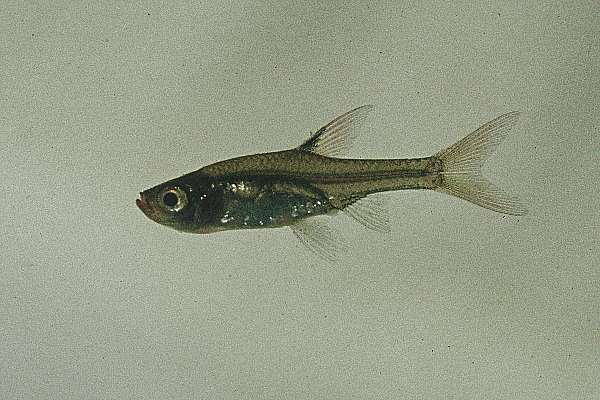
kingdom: Animalia
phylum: Chordata
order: Cypriniformes
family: Cyprinidae
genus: Coptostomabarbus
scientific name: Coptostomabarbus wittei
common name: Upjaw barb
